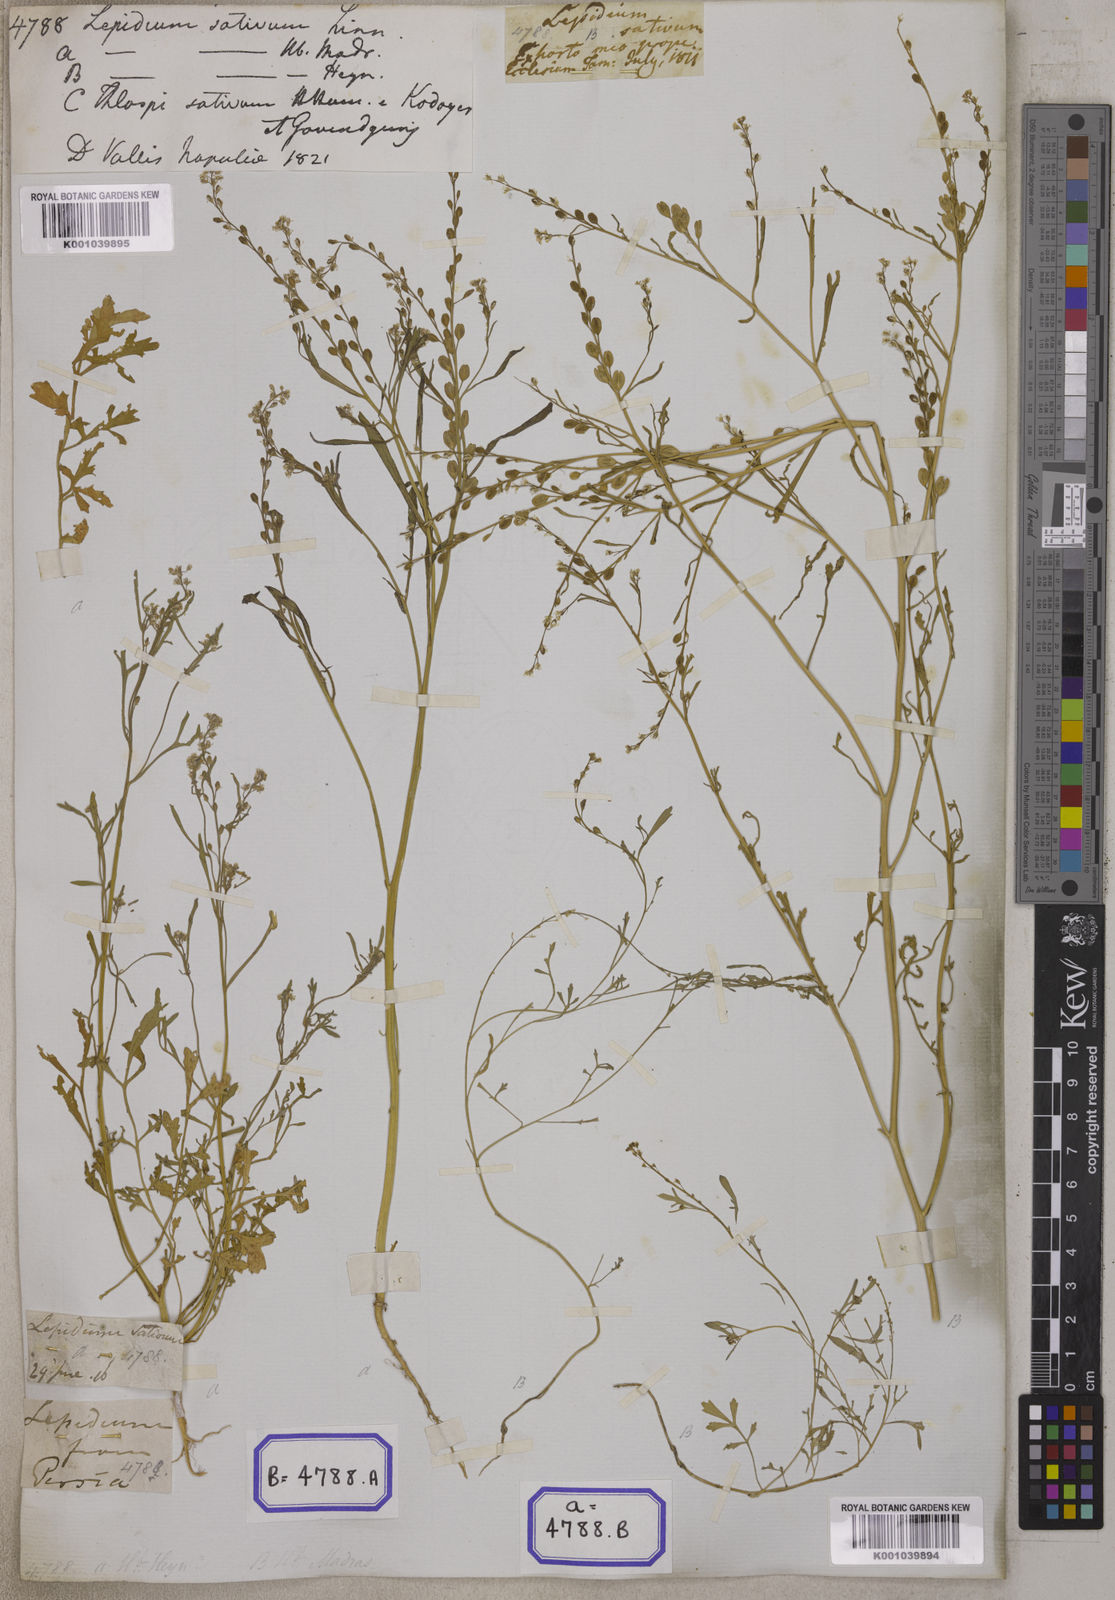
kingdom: Plantae
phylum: Tracheophyta
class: Magnoliopsida
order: Brassicales
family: Brassicaceae
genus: Lepidium
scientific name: Lepidium sativum
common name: Garden cress
